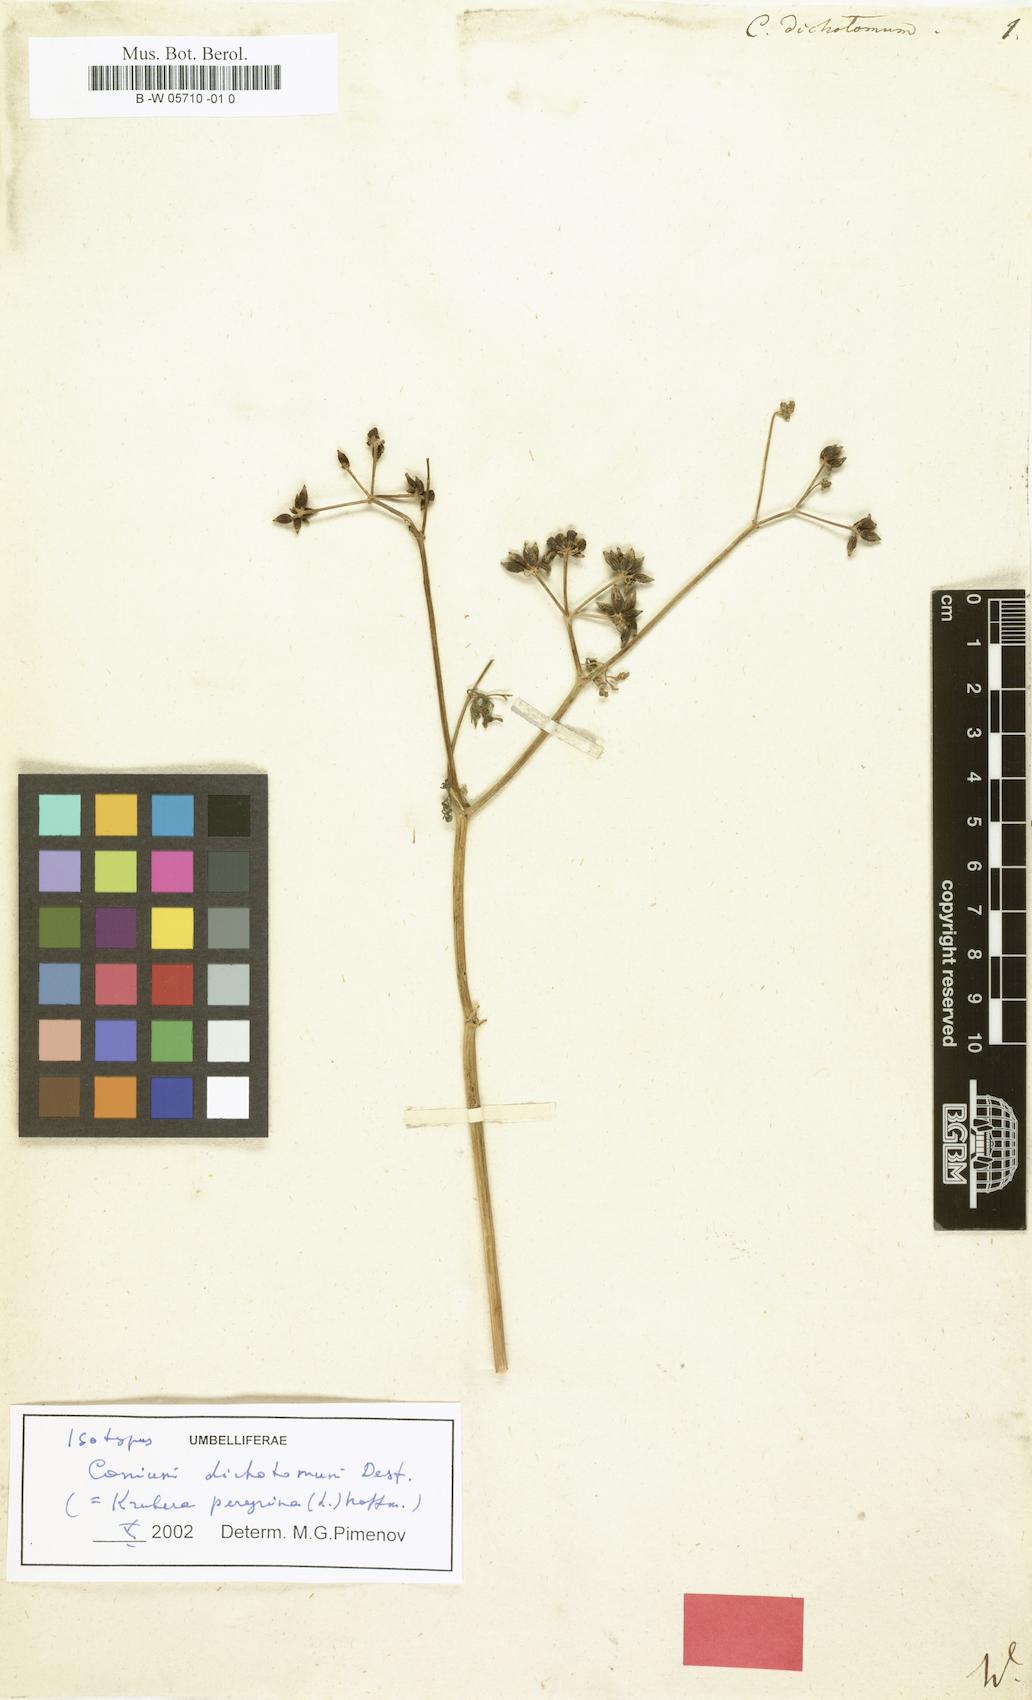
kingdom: Plantae
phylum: Tracheophyta
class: Magnoliopsida
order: Apiales
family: Apiaceae
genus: Krubera
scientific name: Krubera peregrina
